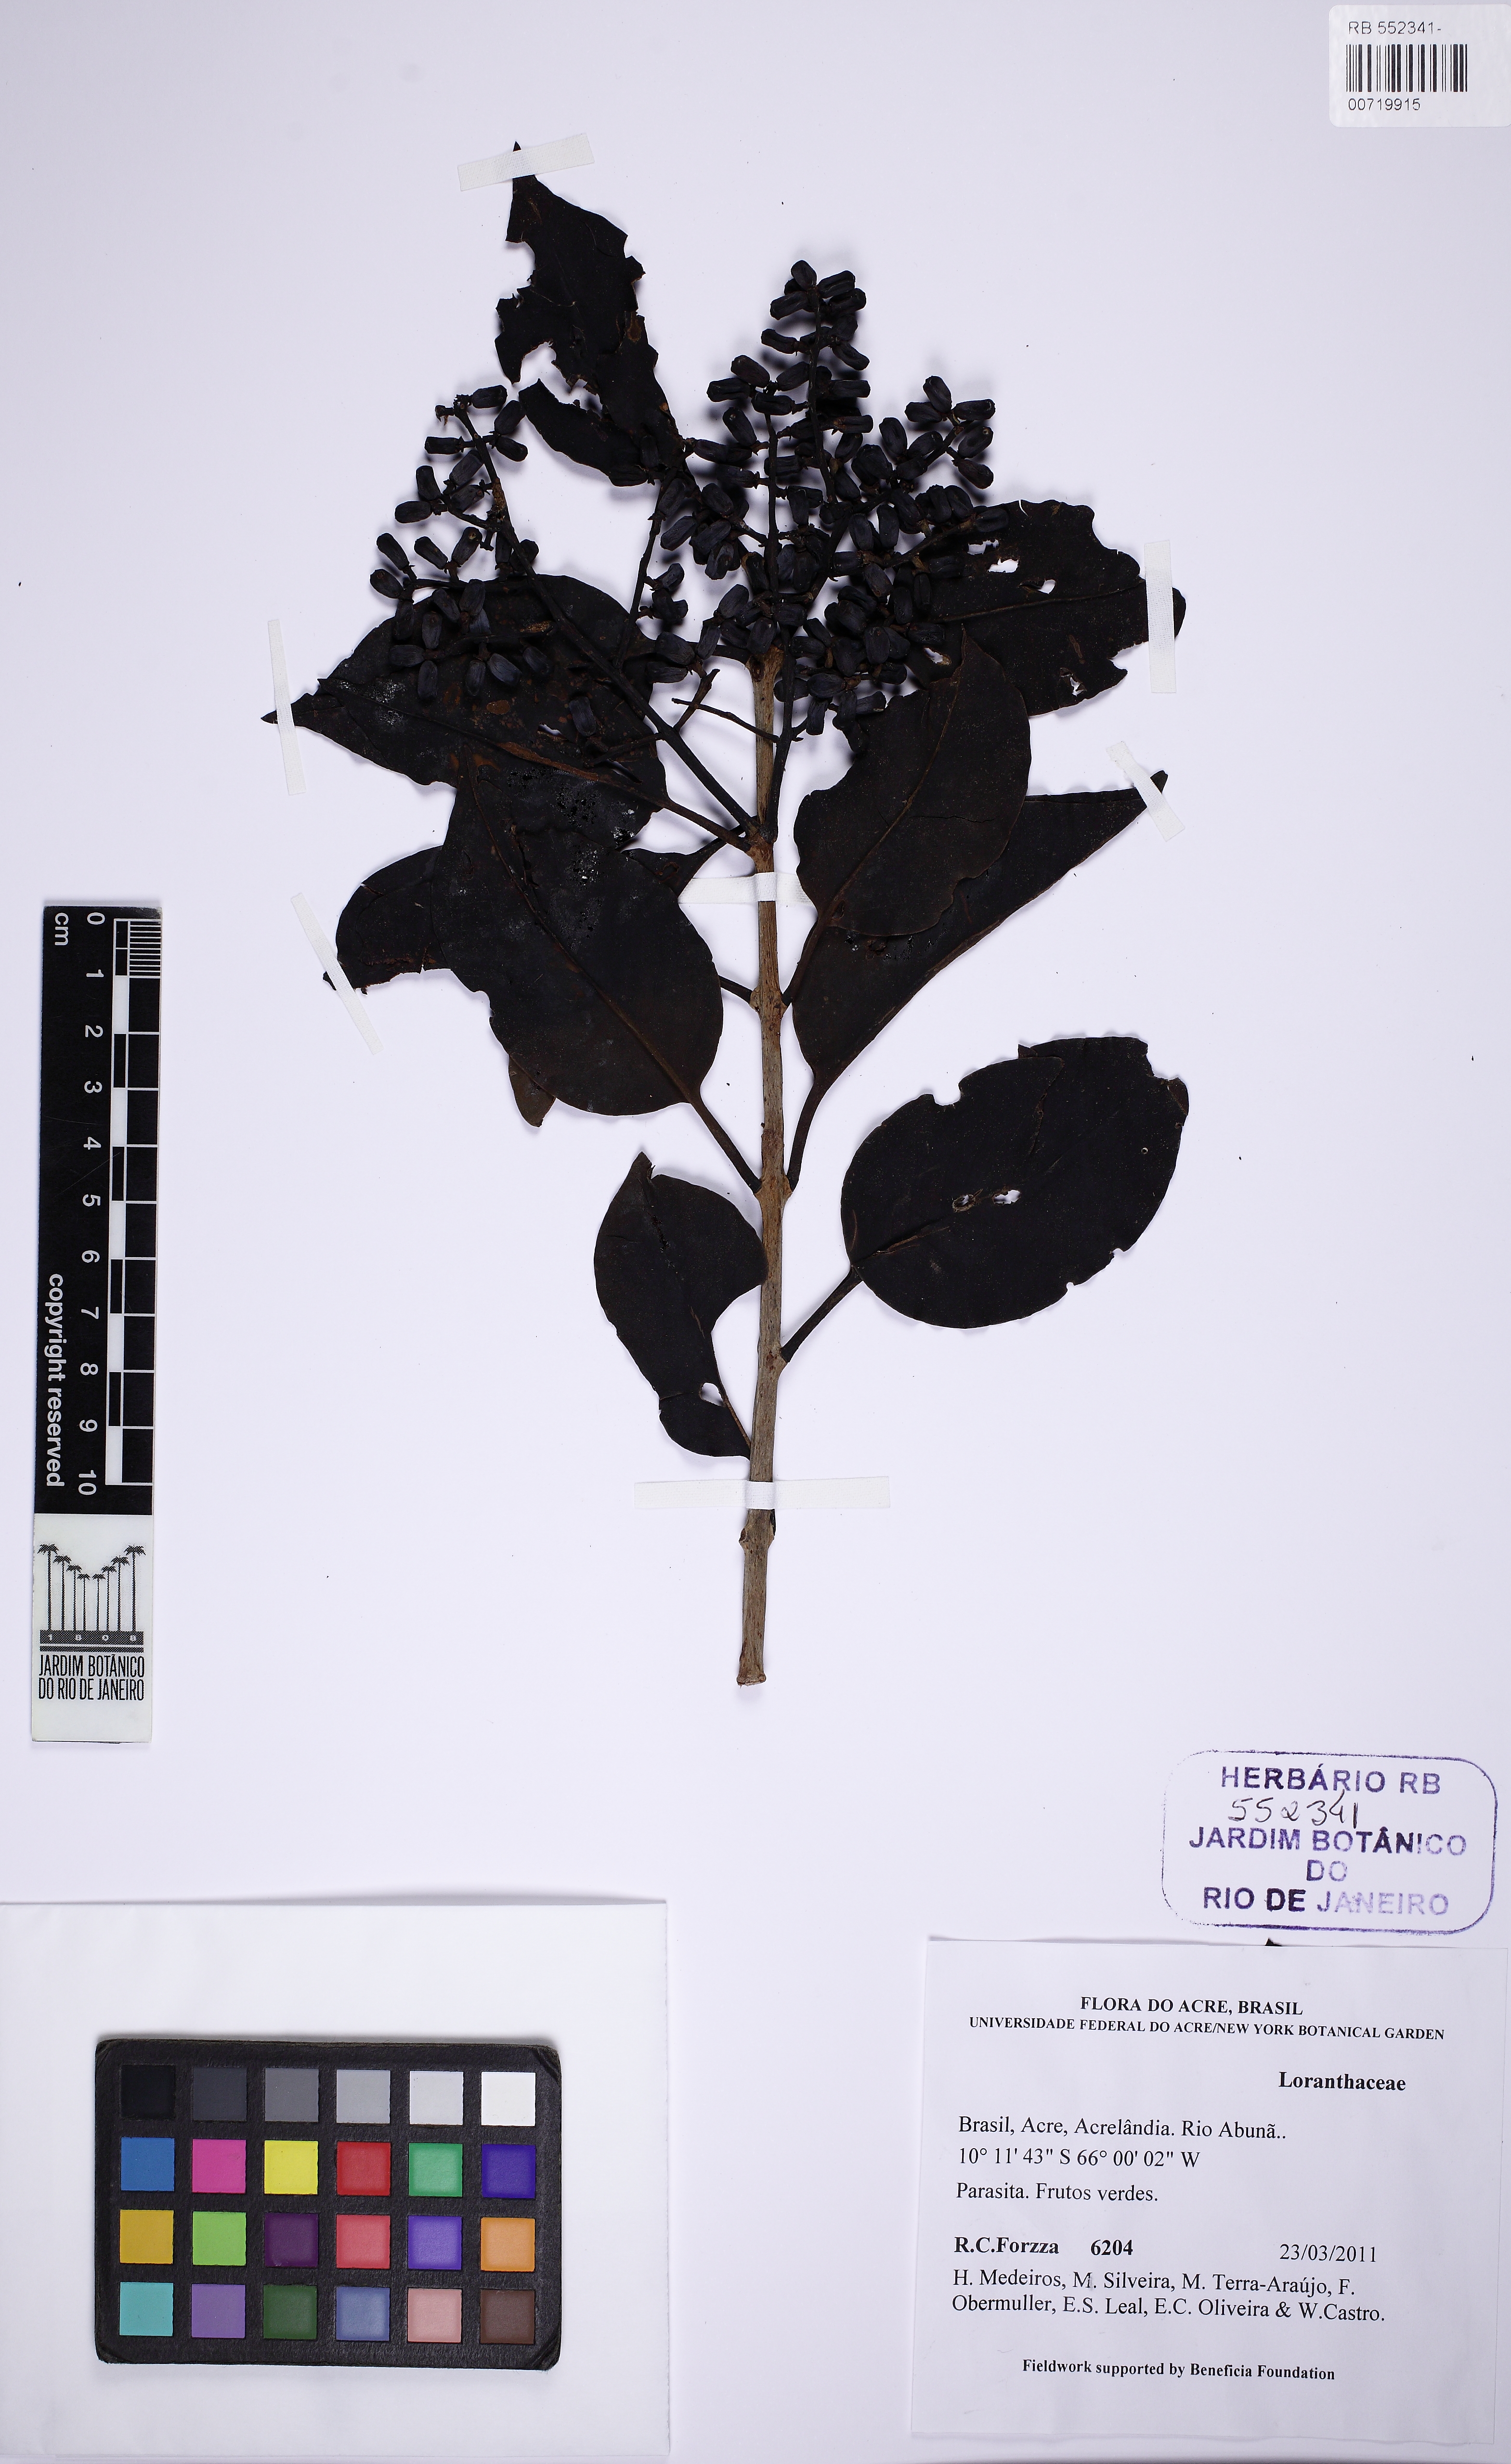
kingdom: Plantae
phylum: Tracheophyta
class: Magnoliopsida
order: Santalales
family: Loranthaceae
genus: Passovia
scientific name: Passovia pedunculata
